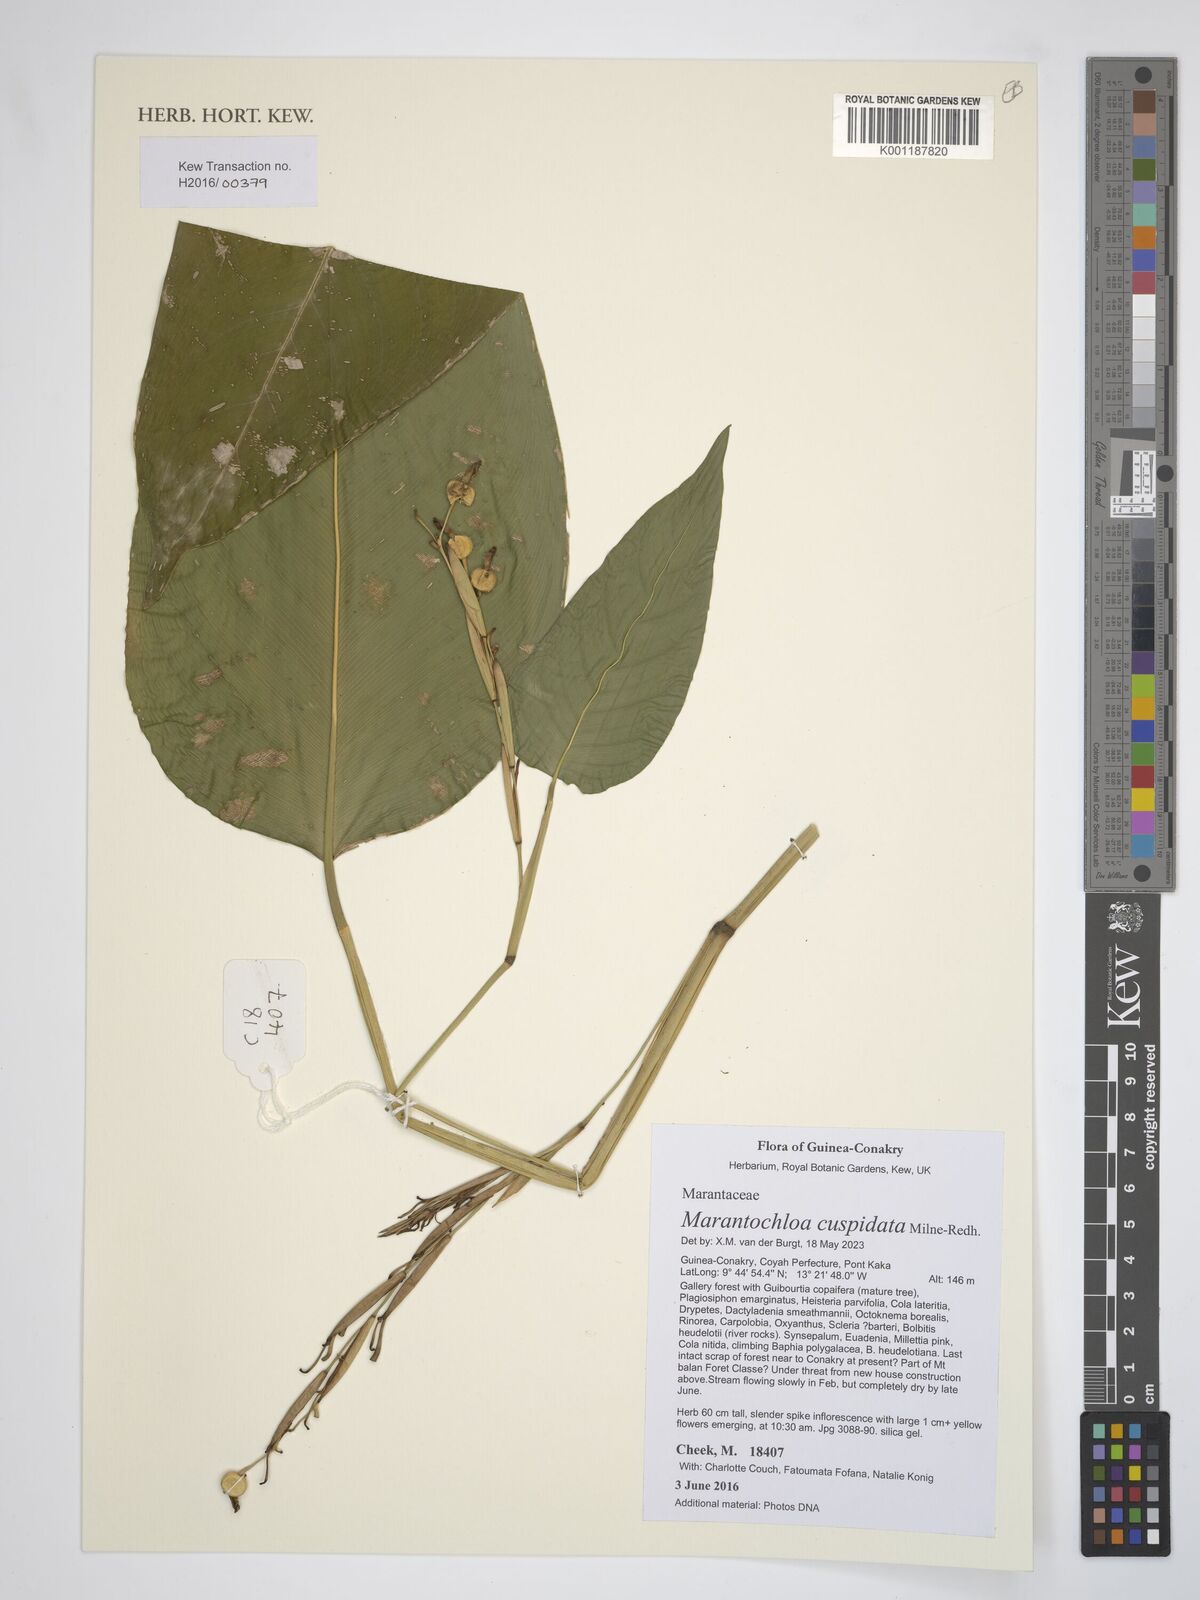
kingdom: Plantae
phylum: Tracheophyta
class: Liliopsida
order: Zingiberales
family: Marantaceae
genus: Marantochloa
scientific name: Marantochloa cuspidata
